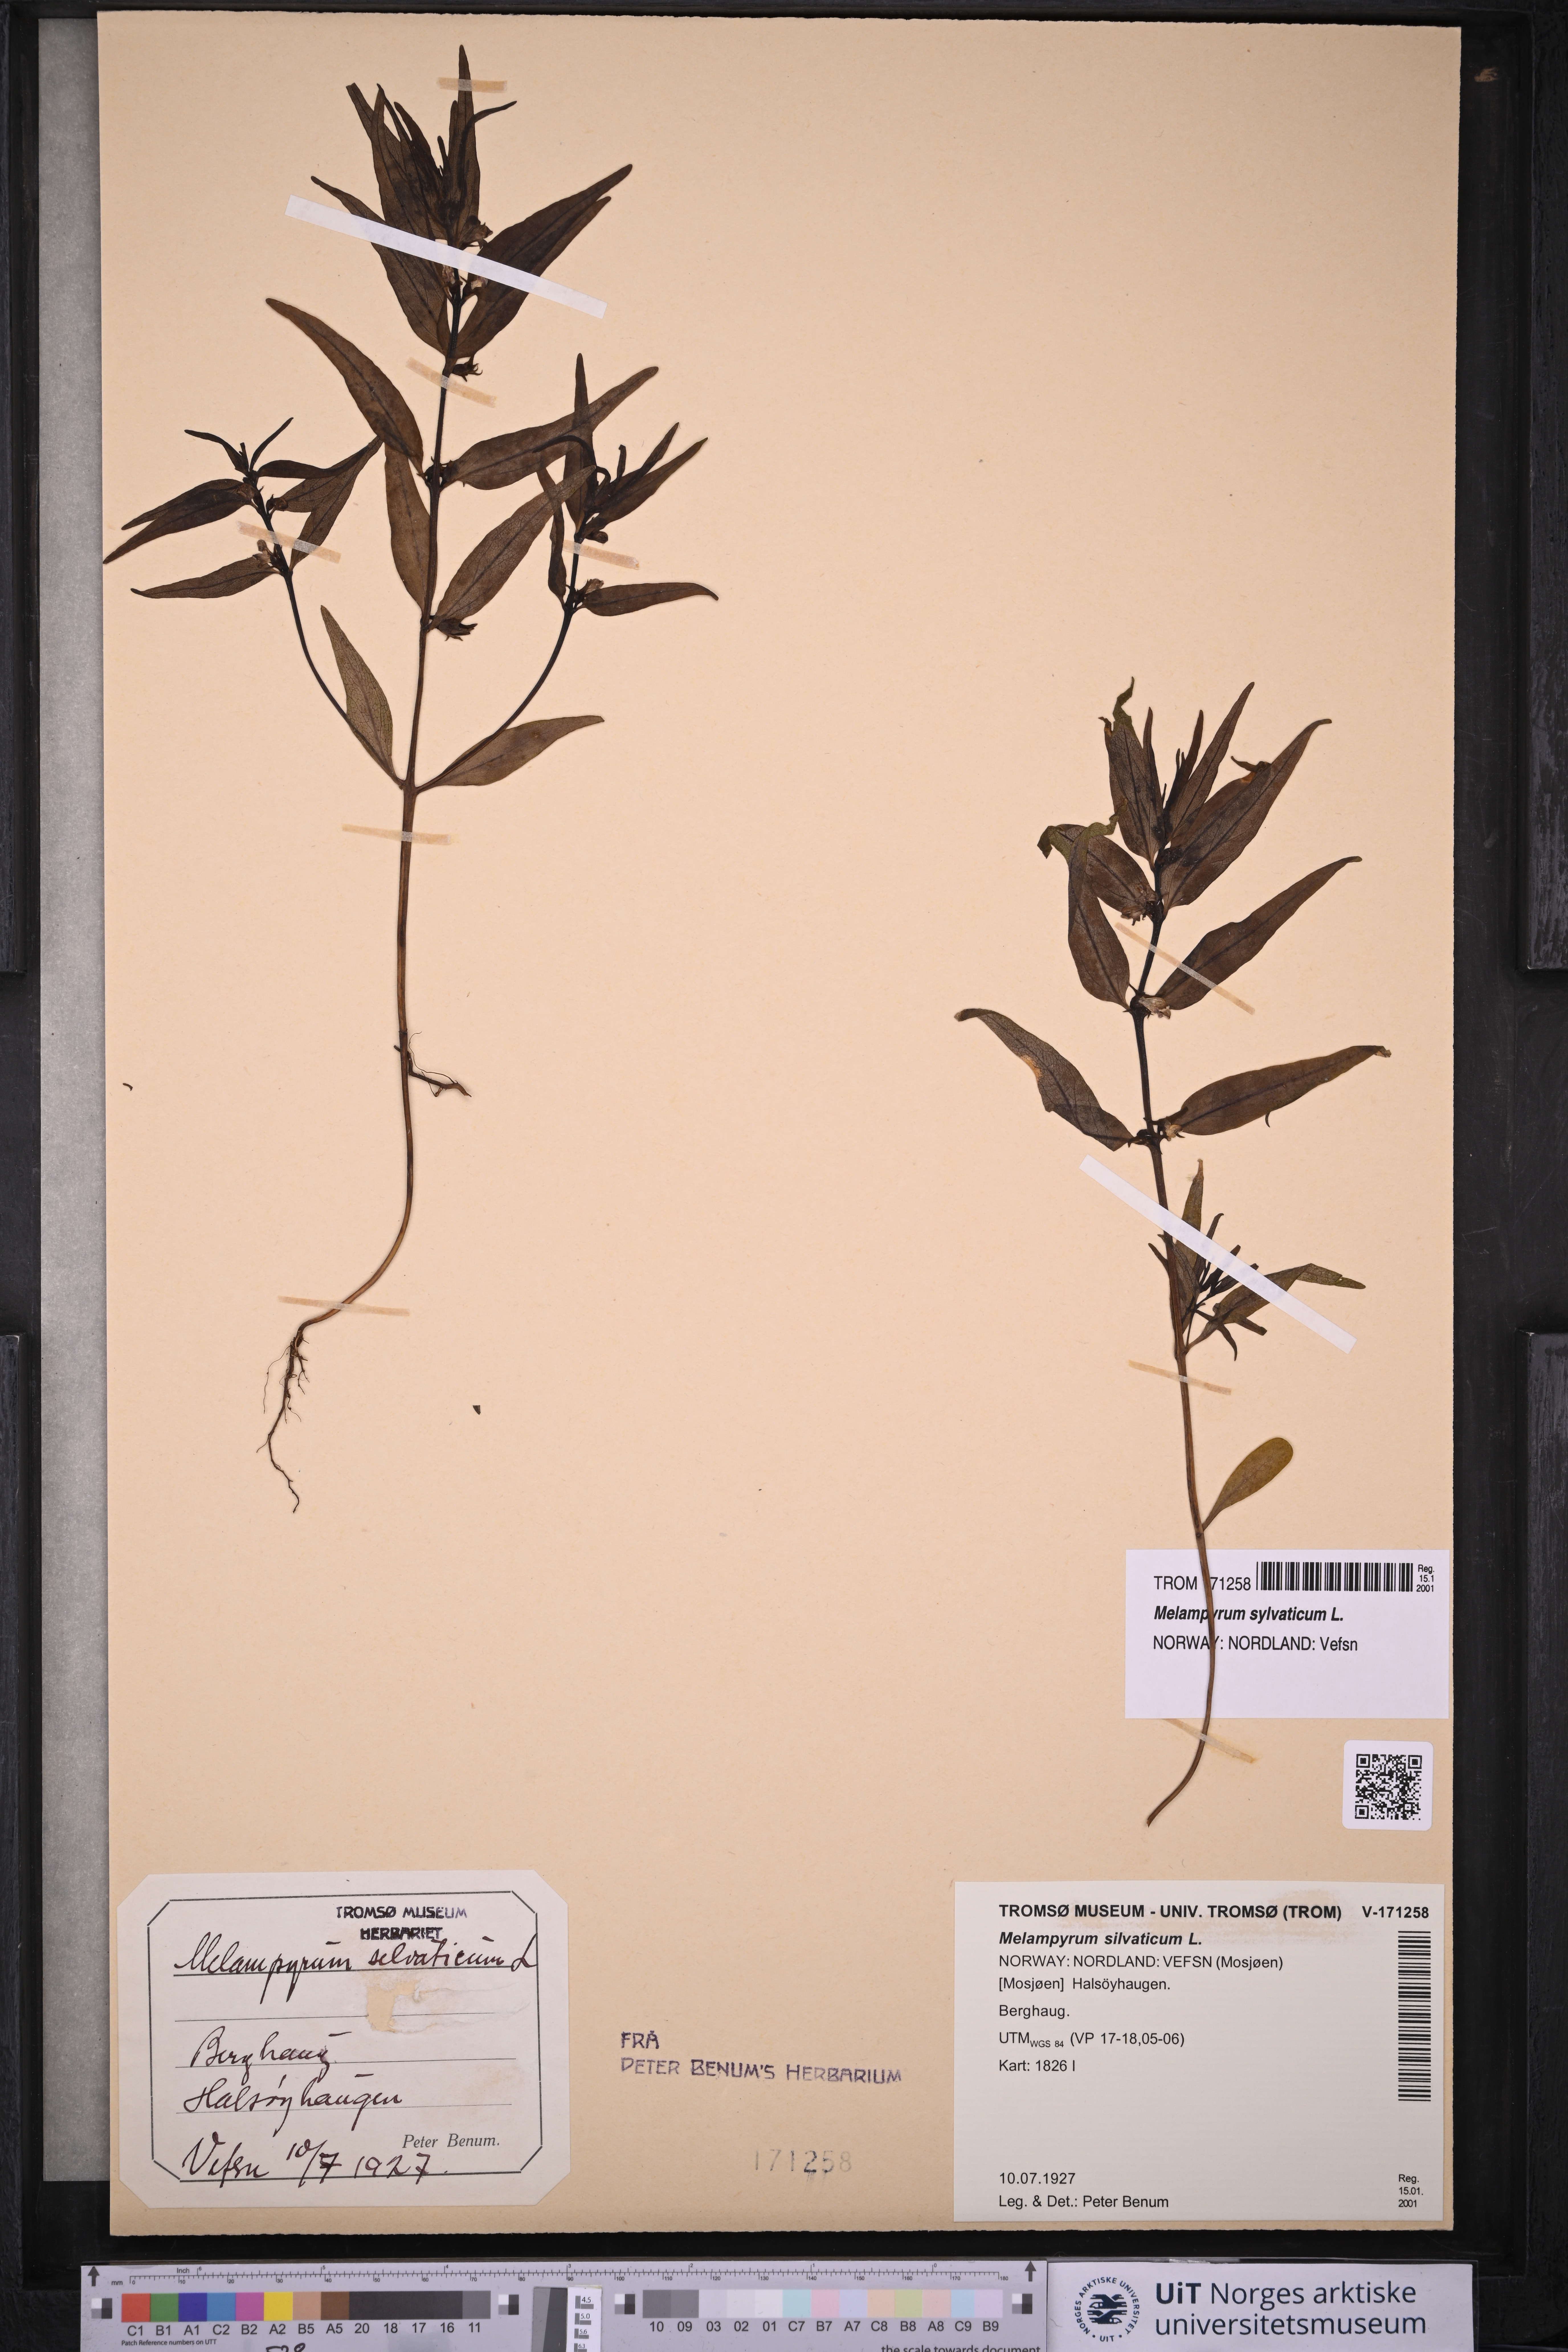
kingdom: Plantae
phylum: Tracheophyta
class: Magnoliopsida
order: Lamiales
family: Orobanchaceae
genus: Melampyrum
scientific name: Melampyrum sylvaticum
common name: Small cow-wheat
